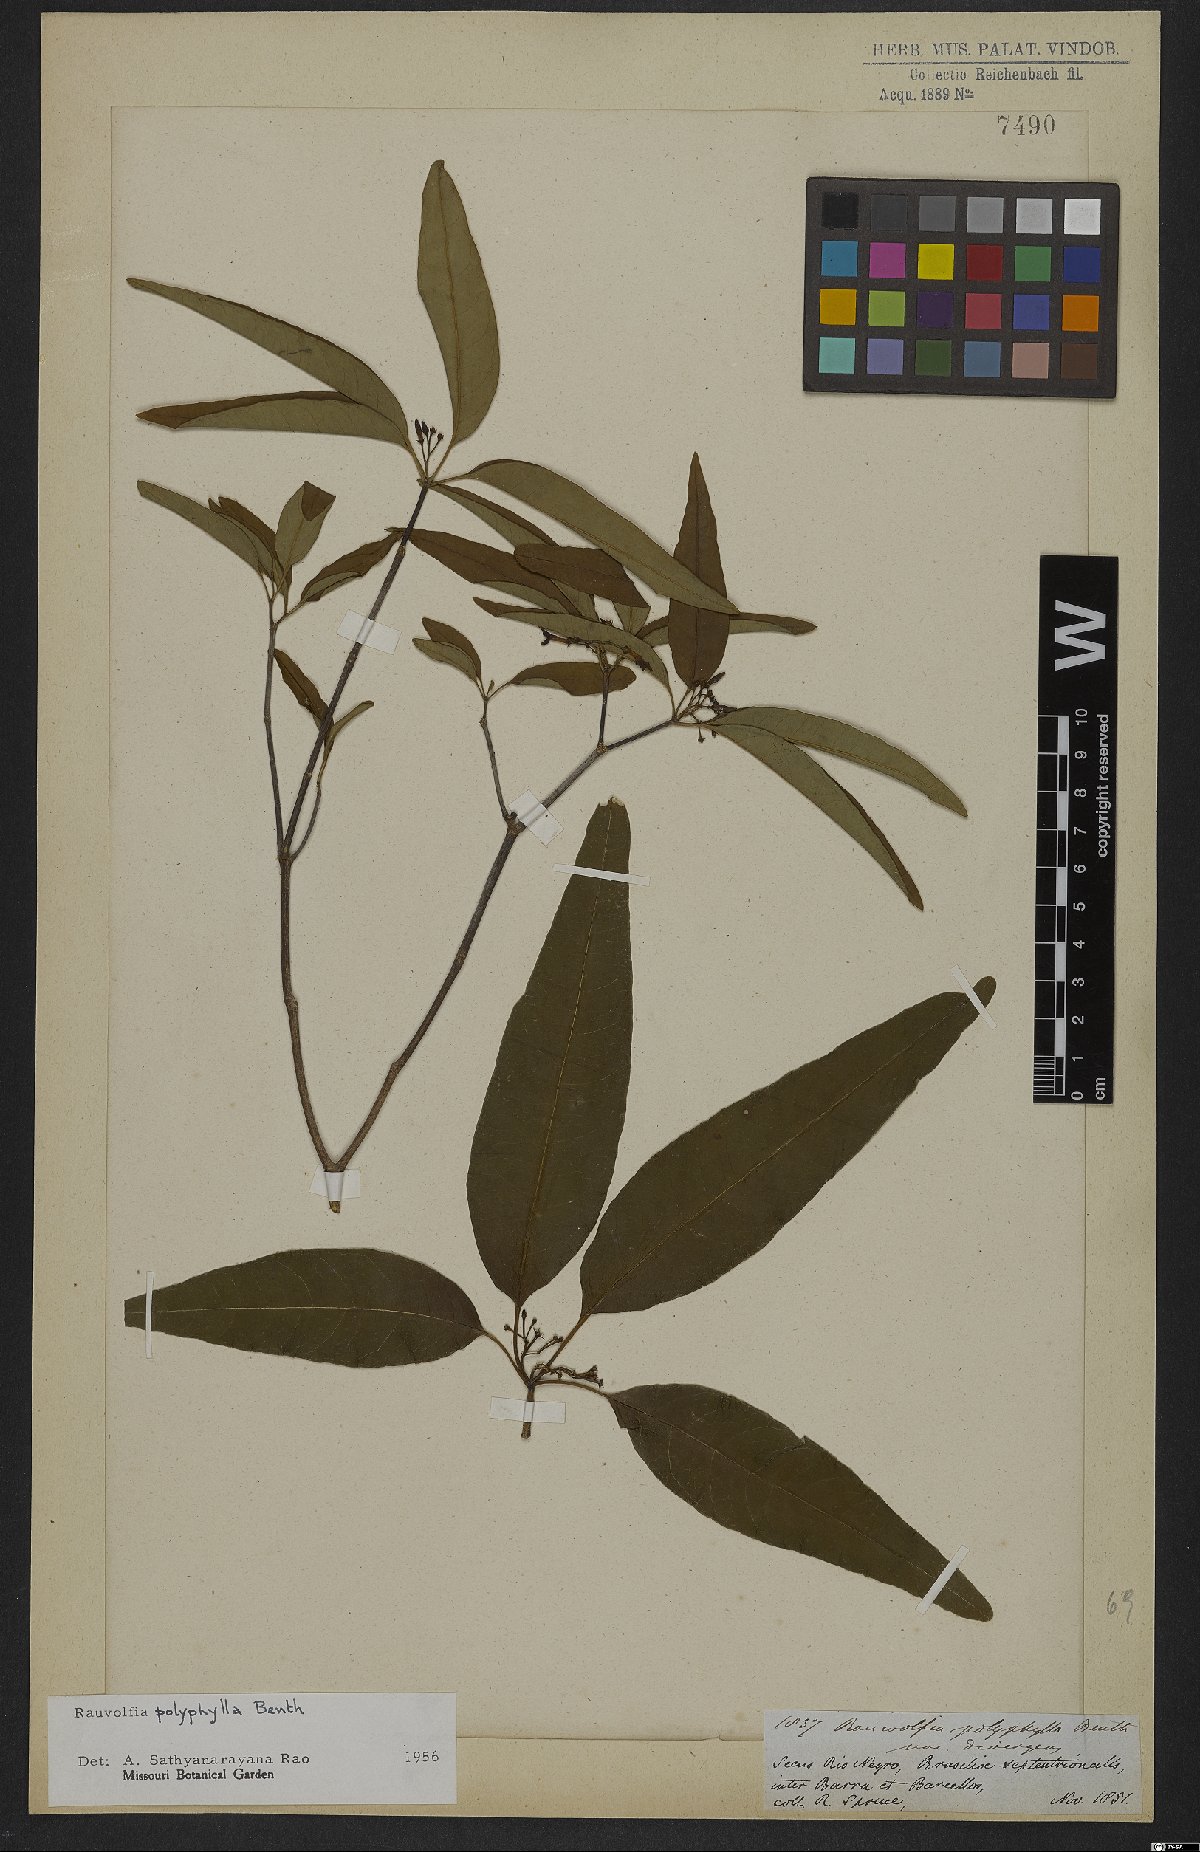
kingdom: Plantae
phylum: Tracheophyta
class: Magnoliopsida
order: Gentianales
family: Apocynaceae
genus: Rauvolfia
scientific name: Rauvolfia polyphylla
